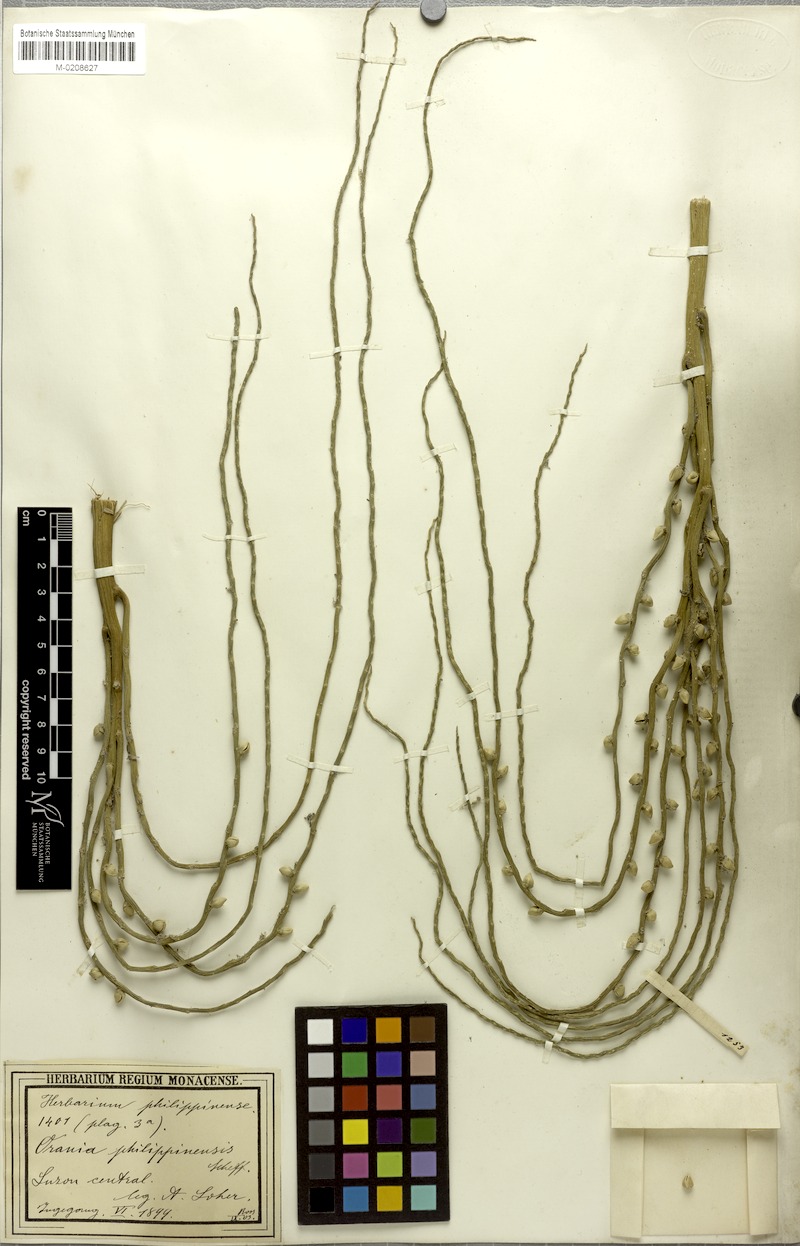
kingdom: Plantae
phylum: Tracheophyta
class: Liliopsida
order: Arecales
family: Arecaceae
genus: Orania
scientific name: Orania palindan
